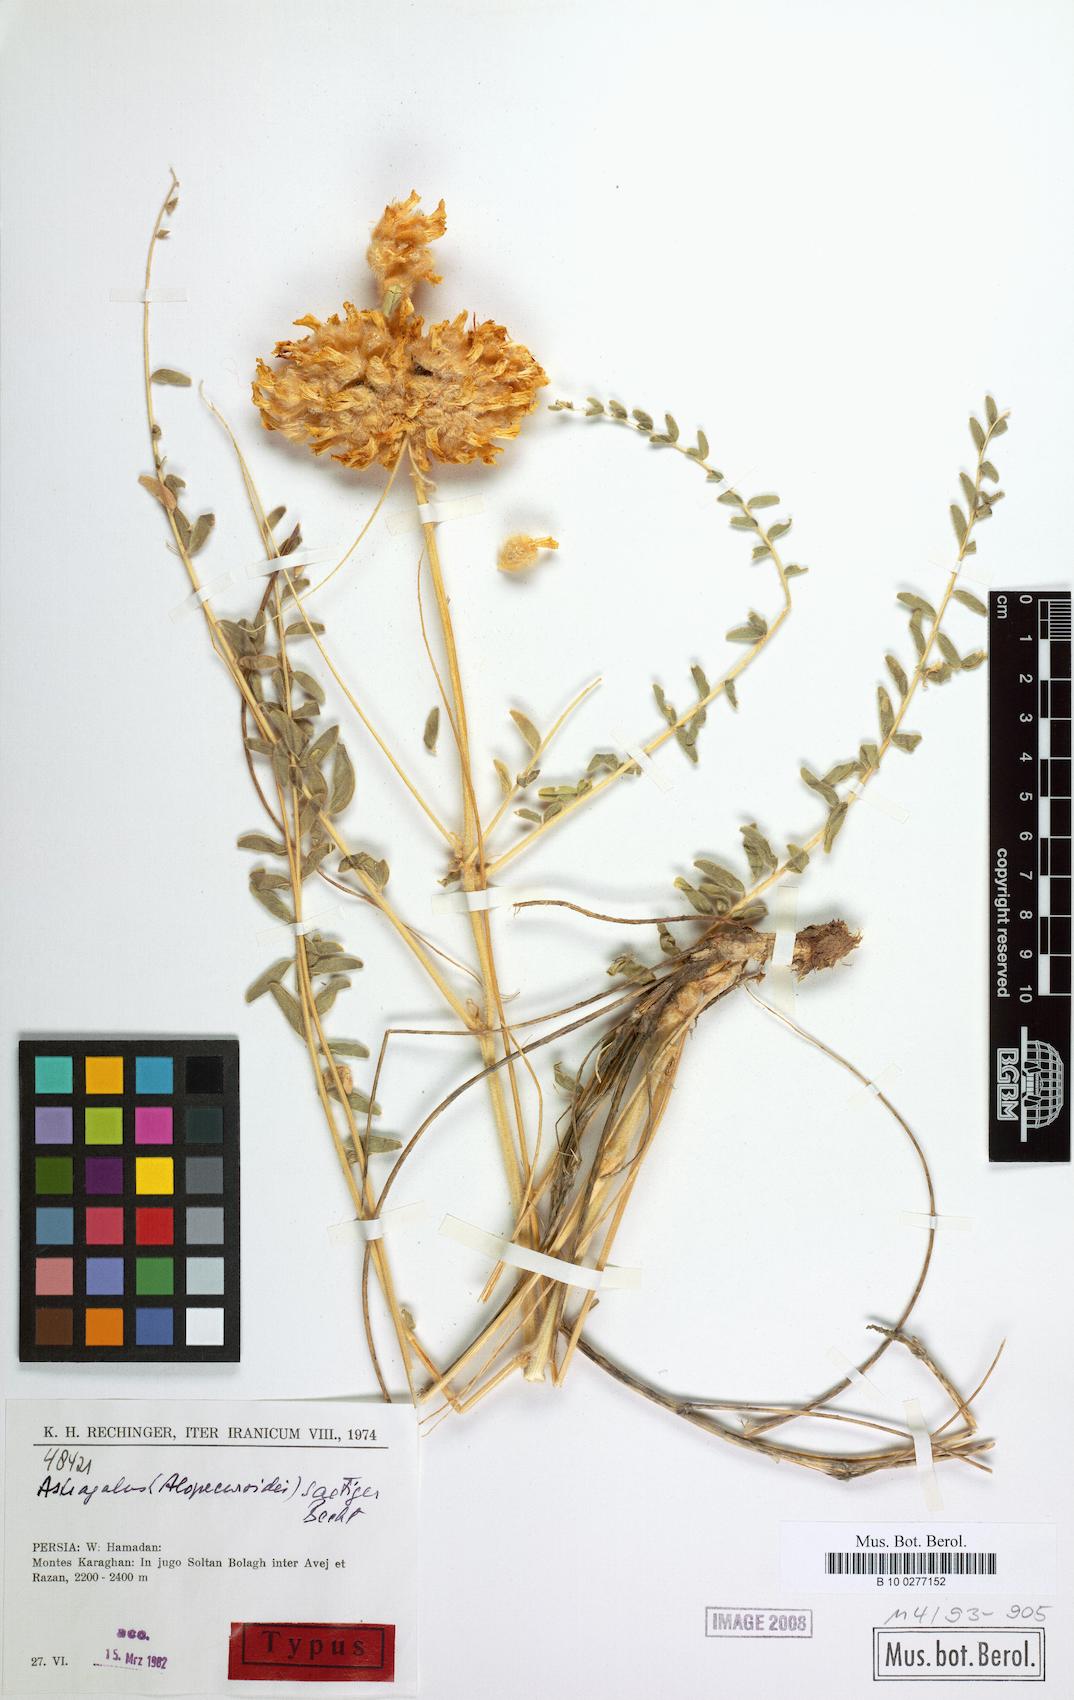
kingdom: Plantae
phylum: Tracheophyta
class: Magnoliopsida
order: Fabales
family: Fabaceae
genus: Astragalus
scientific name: Astragalus saetiger
